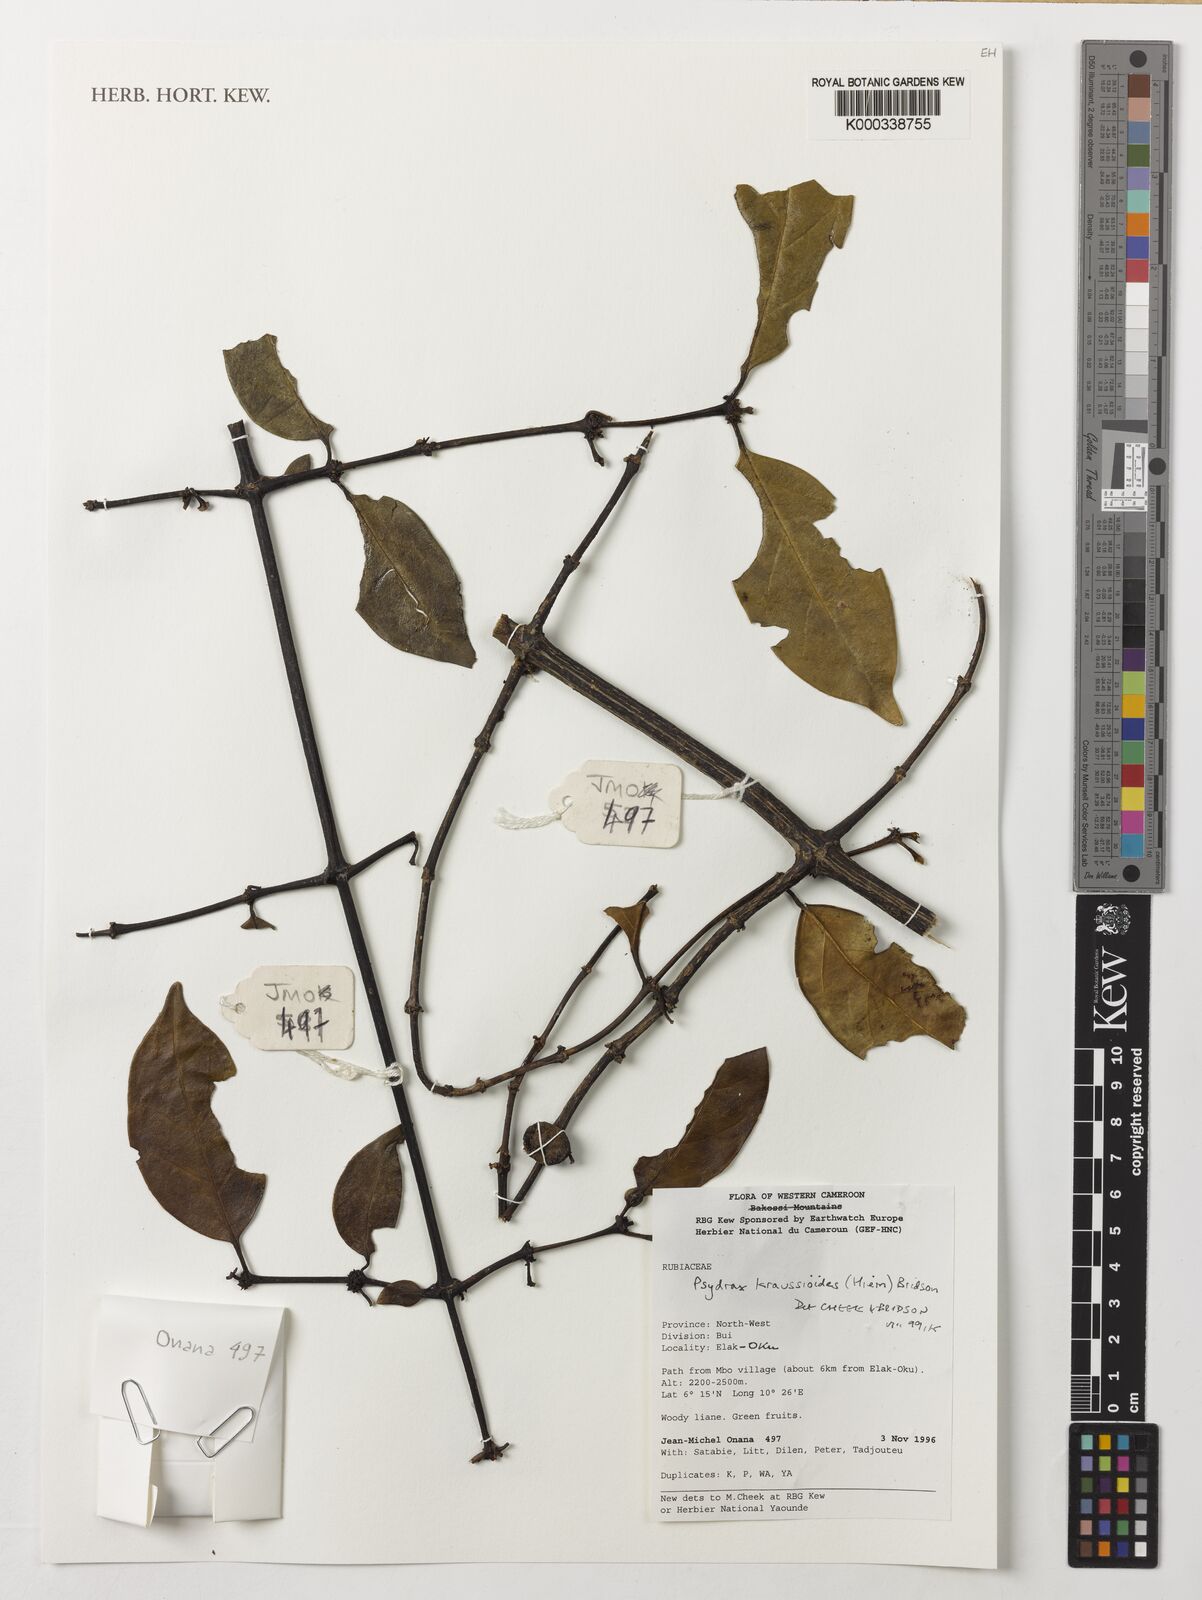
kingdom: Plantae
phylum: Tracheophyta
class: Magnoliopsida
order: Gentianales
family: Rubiaceae
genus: Psydrax
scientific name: Psydrax kraussioides
